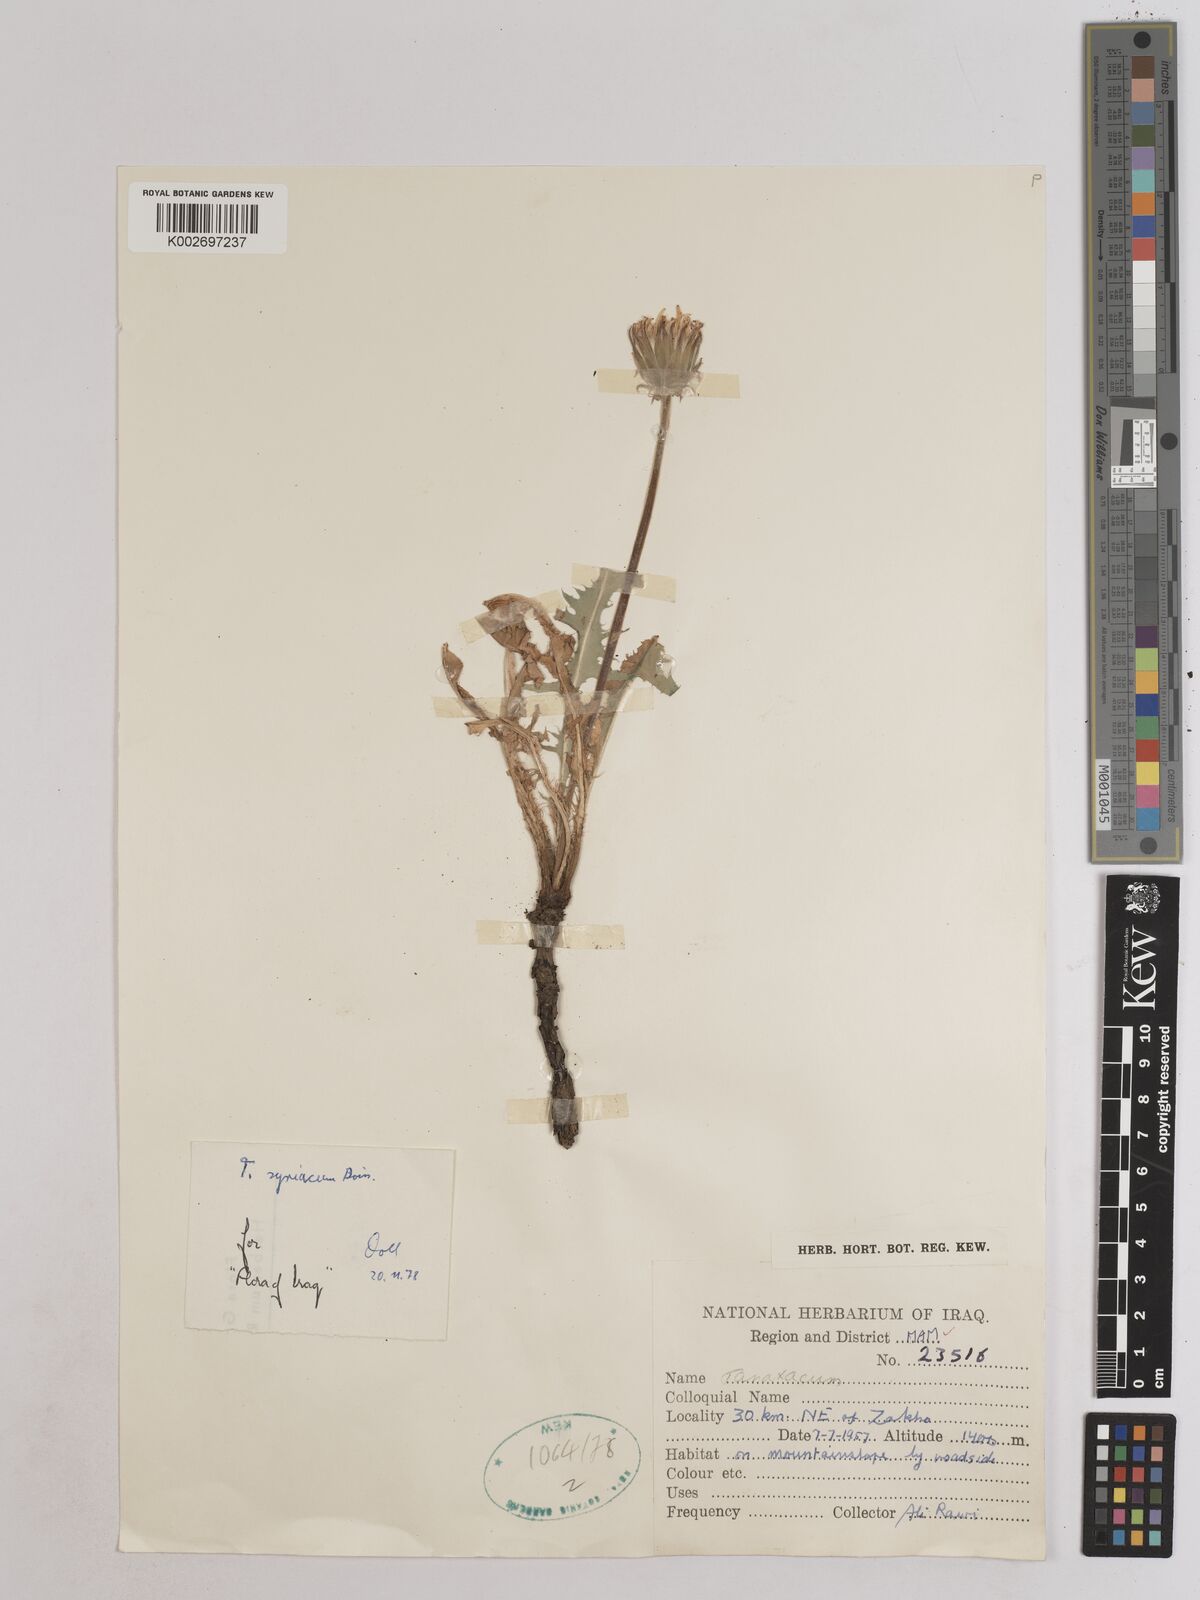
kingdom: Plantae
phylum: Tracheophyta
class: Magnoliopsida
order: Asterales
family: Asteraceae
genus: Taraxacum
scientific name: Taraxacum syriacum
